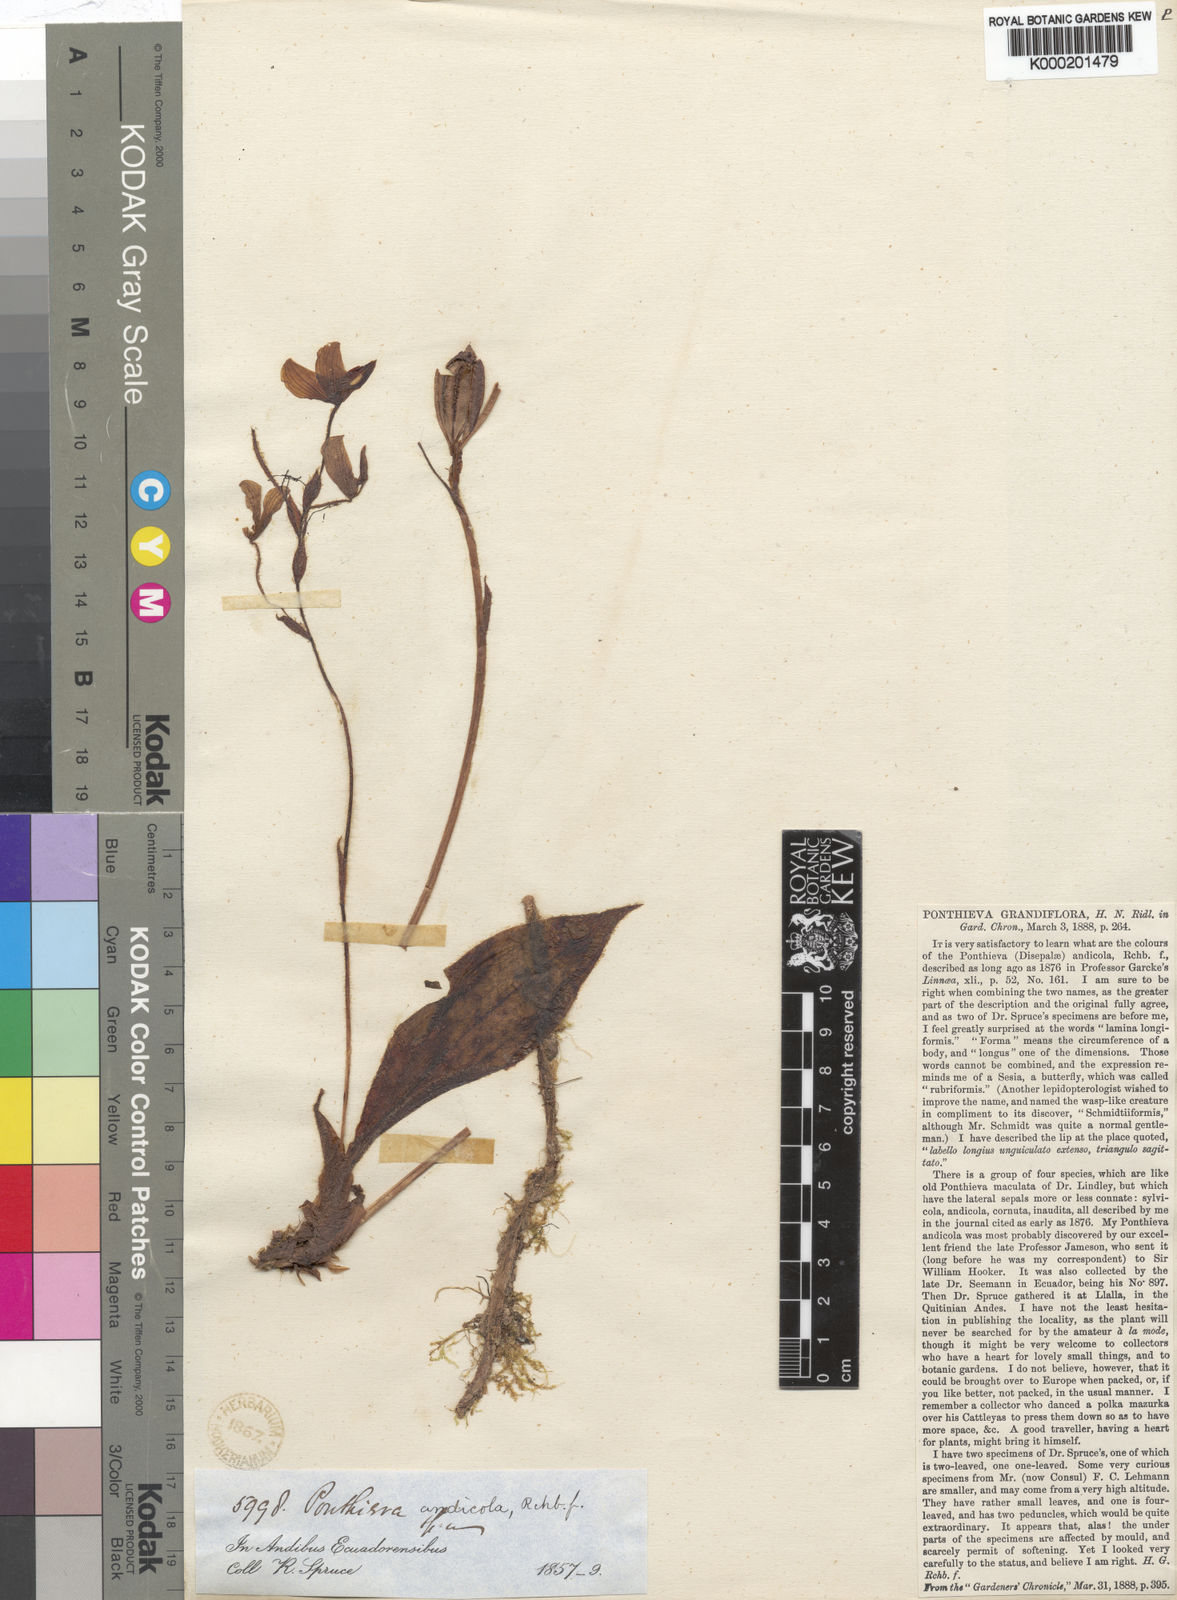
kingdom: Plantae
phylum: Tracheophyta
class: Liliopsida
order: Asparagales
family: Orchidaceae
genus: Ponthieva
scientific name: Ponthieva andicola
